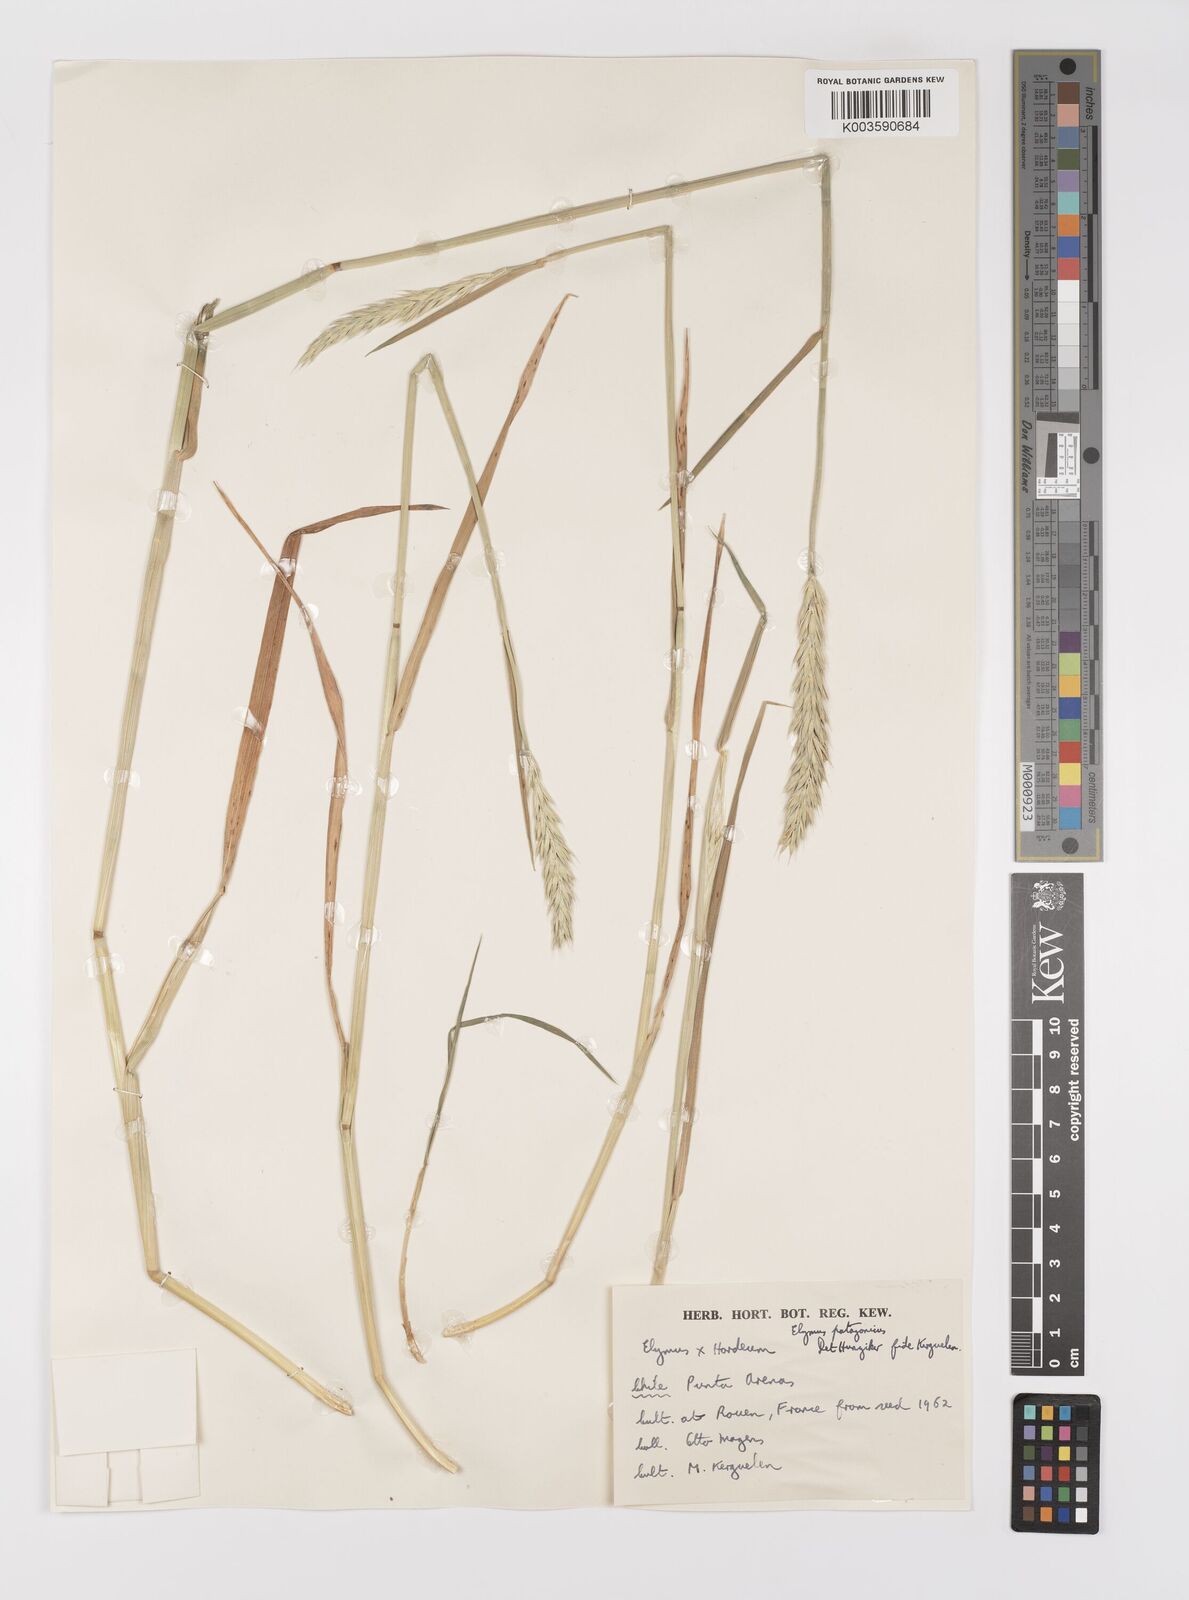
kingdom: Plantae
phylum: Tracheophyta
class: Liliopsida
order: Poales
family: Poaceae
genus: Elymus
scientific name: Elymus patagonicus
